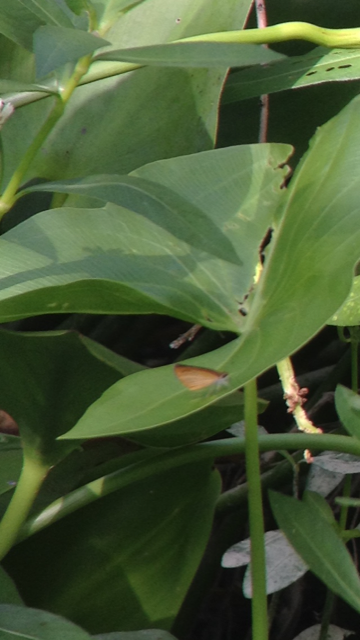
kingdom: Animalia
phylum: Arthropoda
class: Insecta
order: Lepidoptera
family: Hesperiidae
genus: Ancyloxypha
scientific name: Ancyloxypha numitor
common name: Least Skipper
